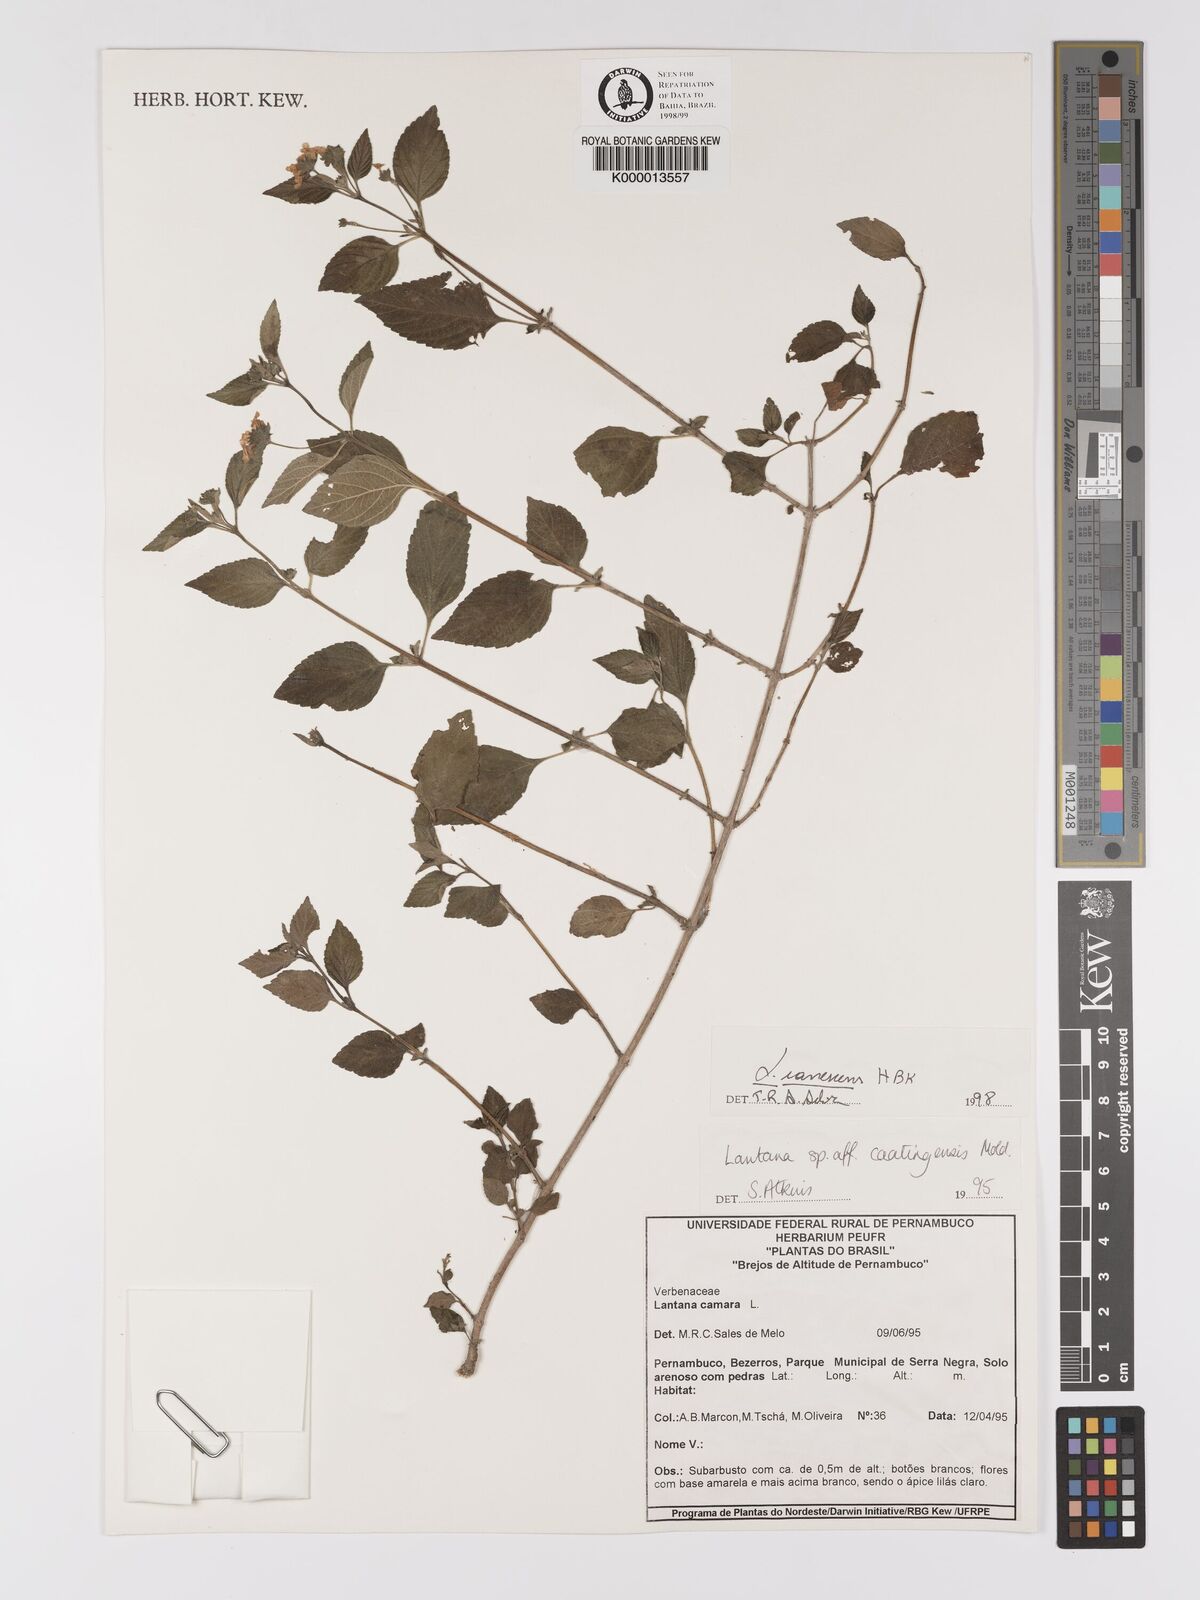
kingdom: Plantae
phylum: Tracheophyta
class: Magnoliopsida
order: Lamiales
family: Verbenaceae
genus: Lantana
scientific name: Lantana canescens
